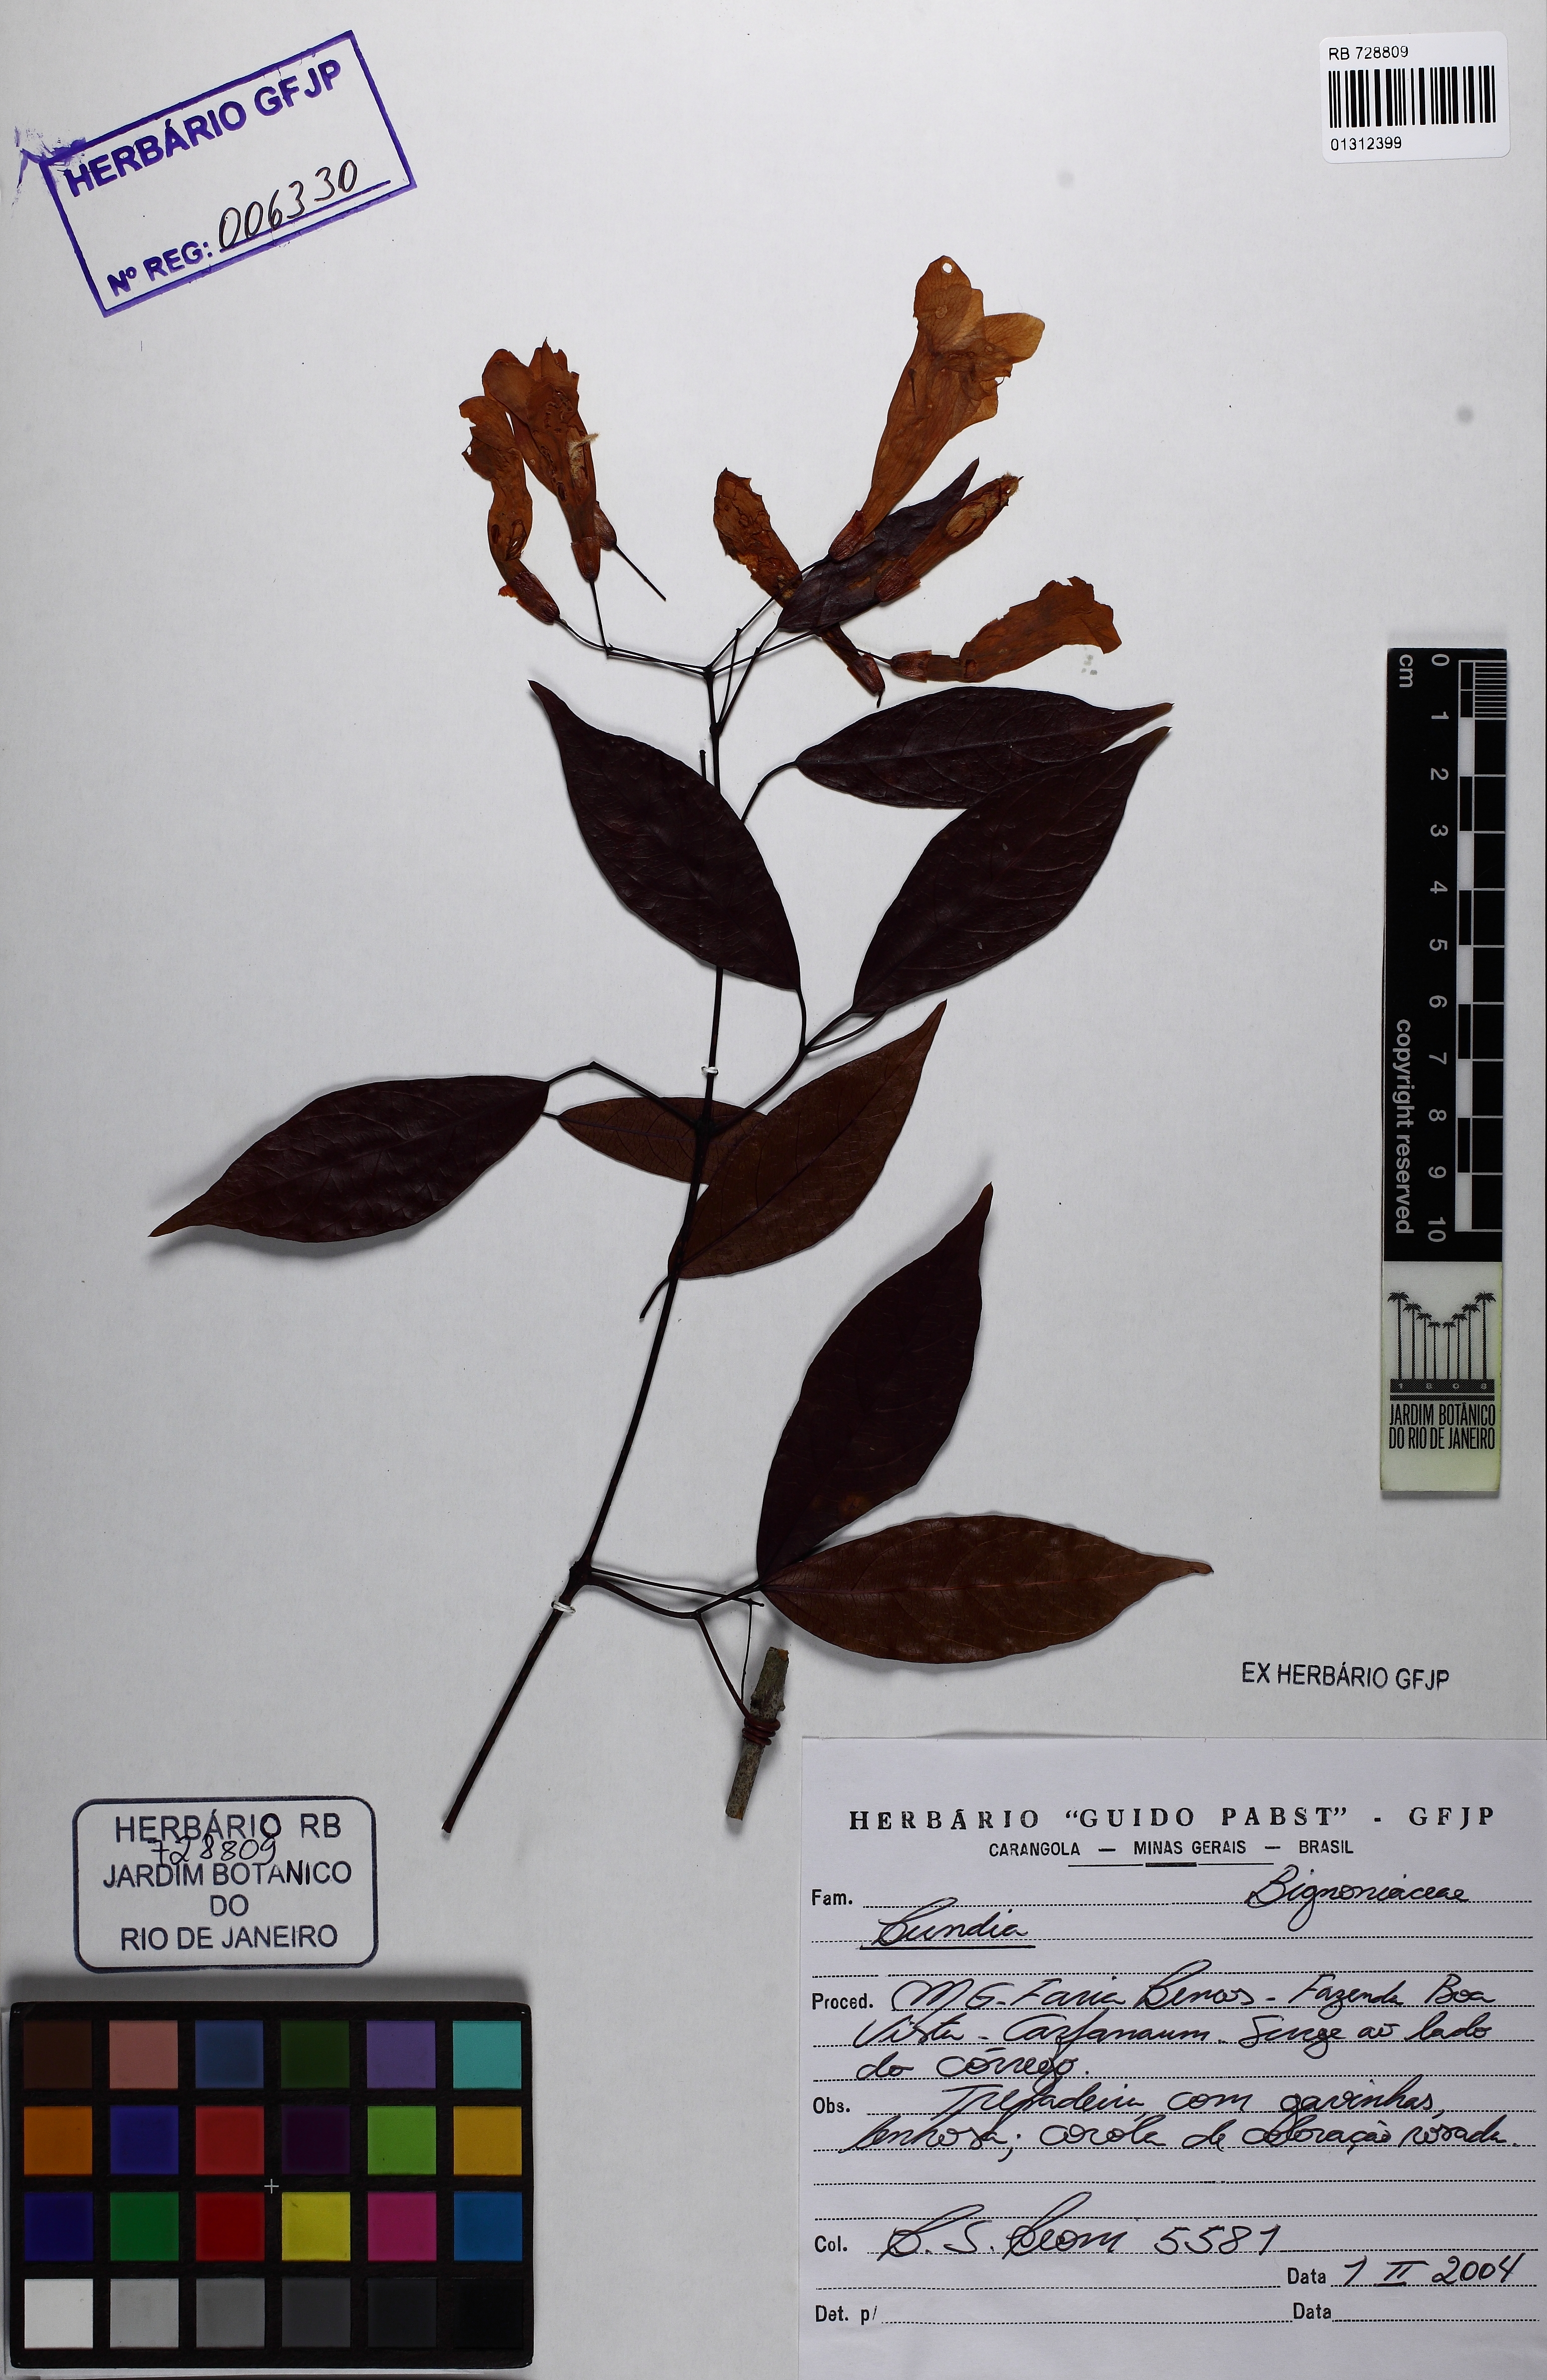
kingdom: Plantae
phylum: Tracheophyta
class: Magnoliopsida
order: Lamiales
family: Bignoniaceae
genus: Lundia
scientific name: Lundia nitidula
